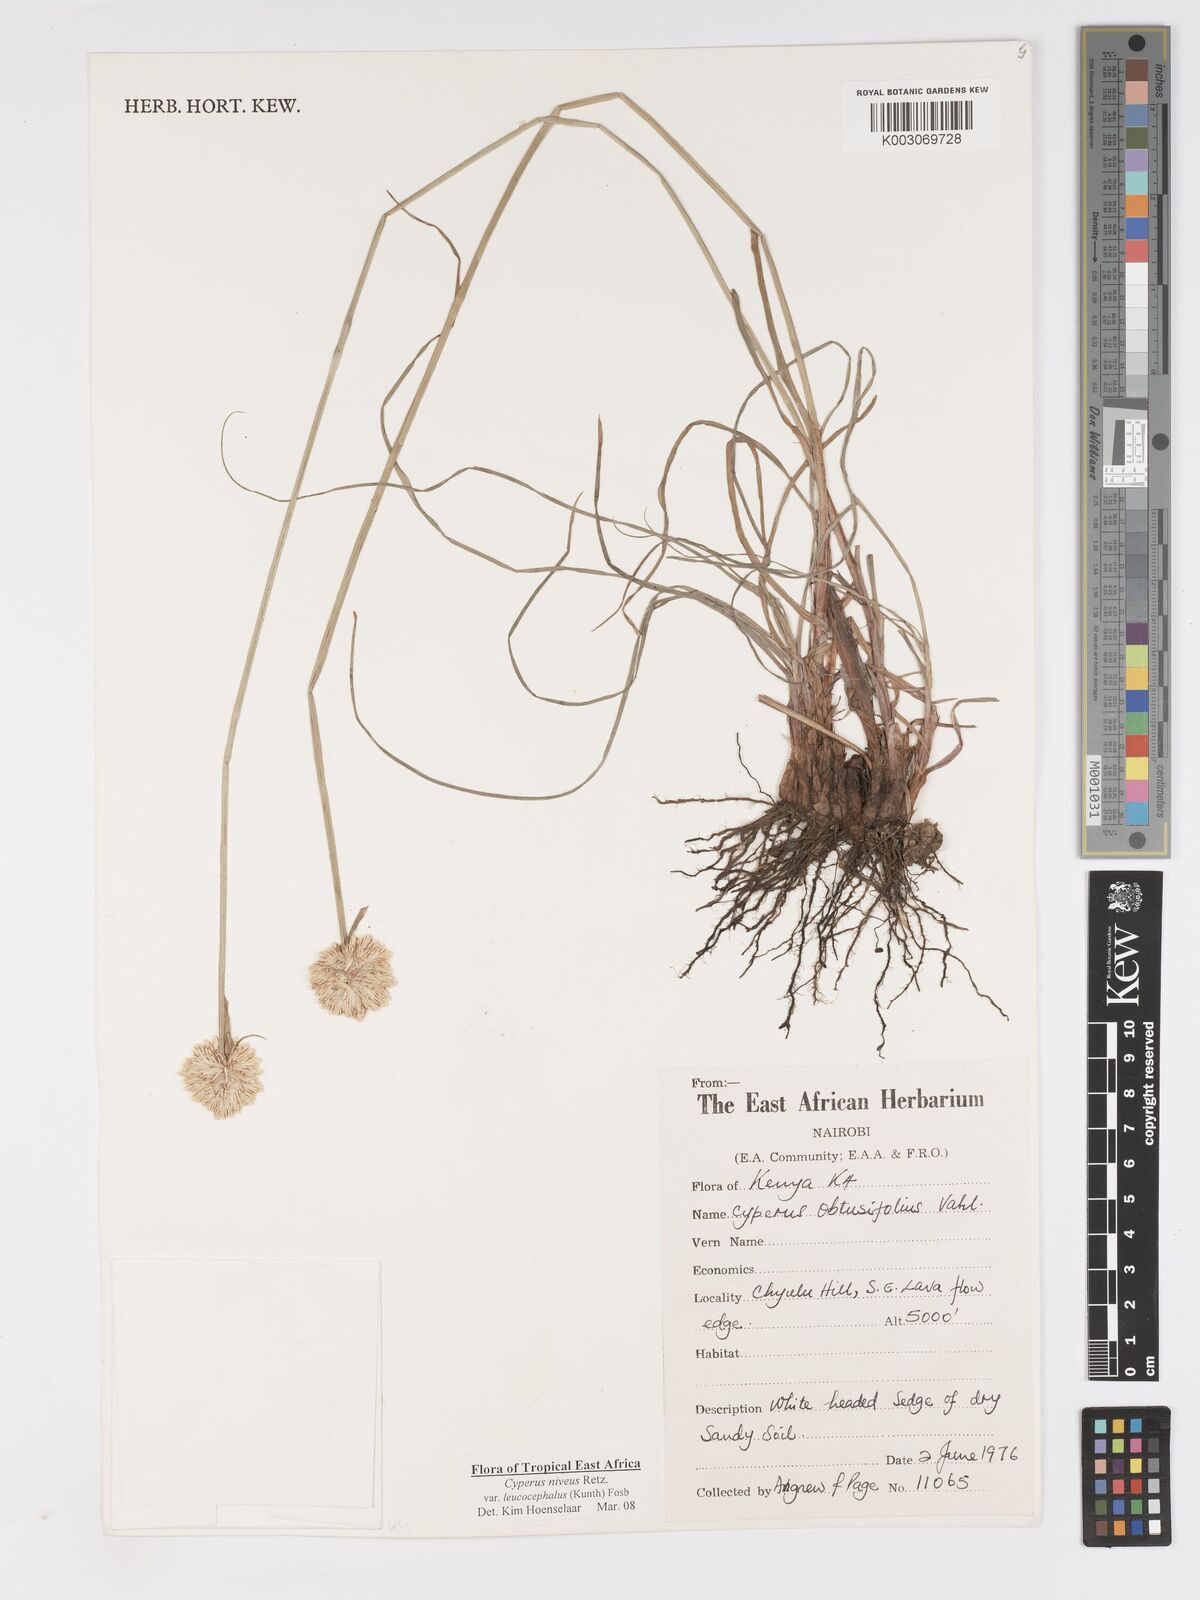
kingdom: Plantae
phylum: Tracheophyta
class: Liliopsida
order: Poales
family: Cyperaceae
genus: Cyperus
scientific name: Cyperus niveus
